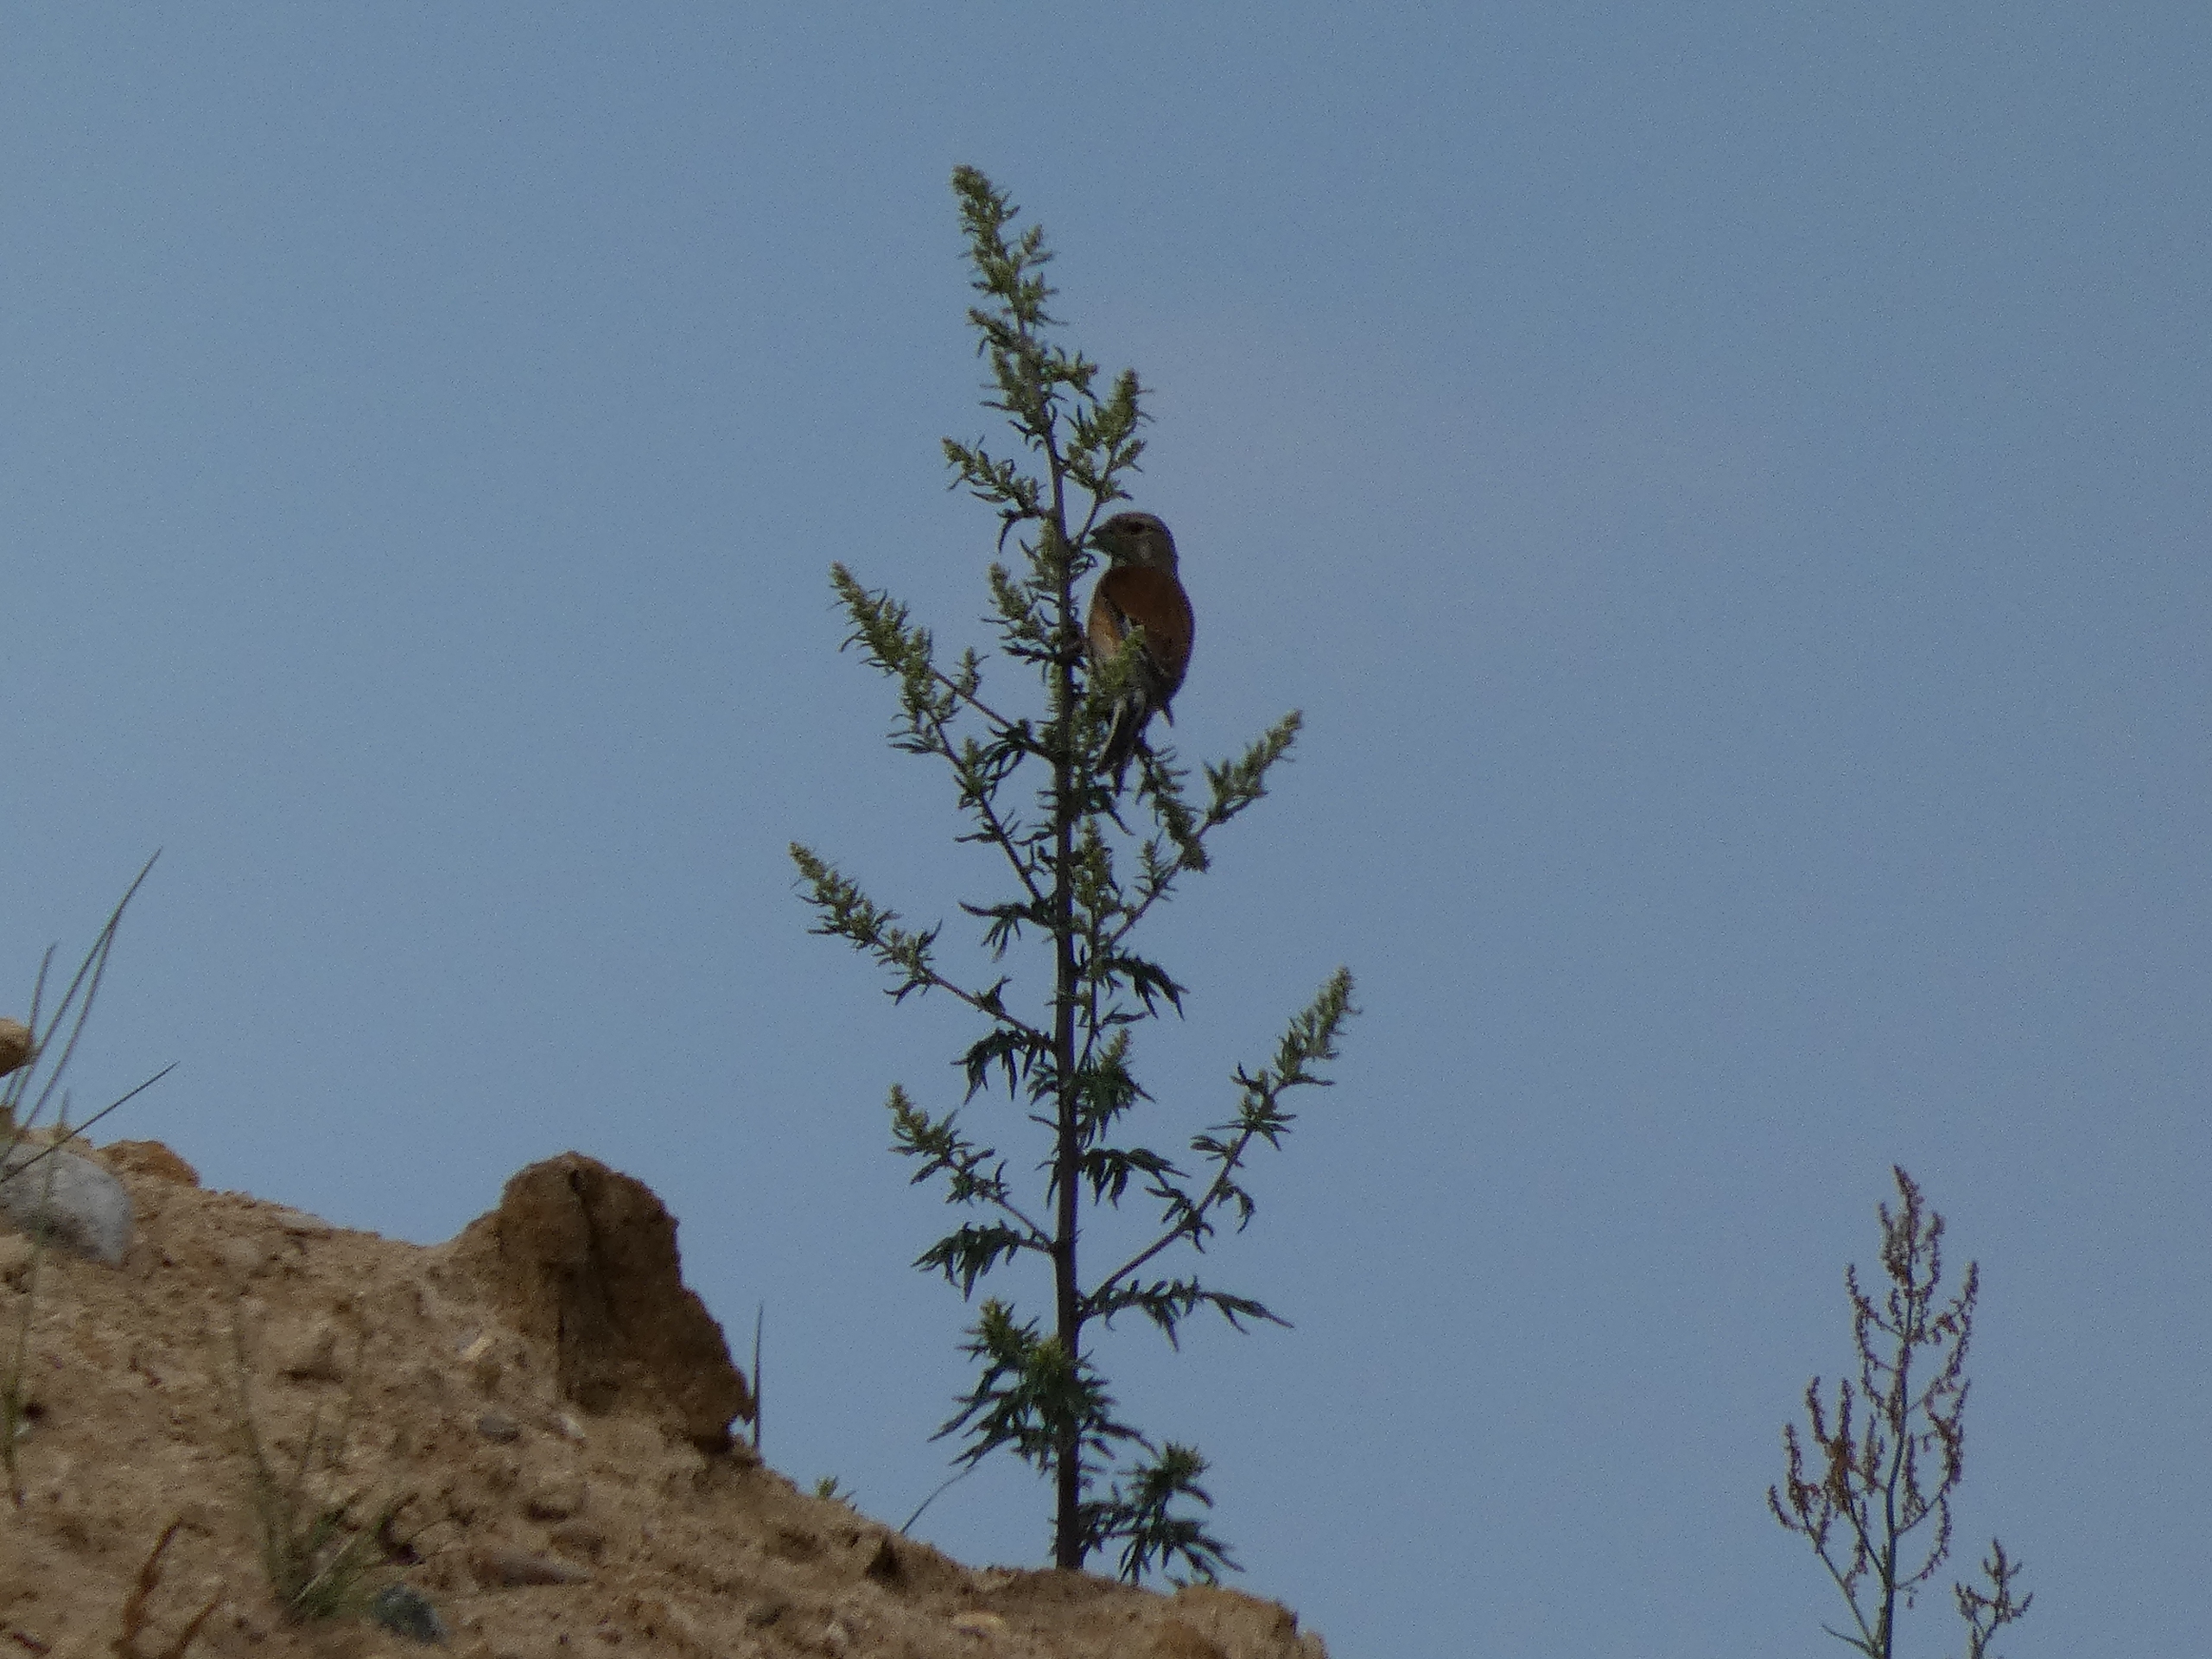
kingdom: Animalia
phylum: Chordata
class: Aves
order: Passeriformes
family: Fringillidae
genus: Linaria
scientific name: Linaria cannabina
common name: Tornirisk
